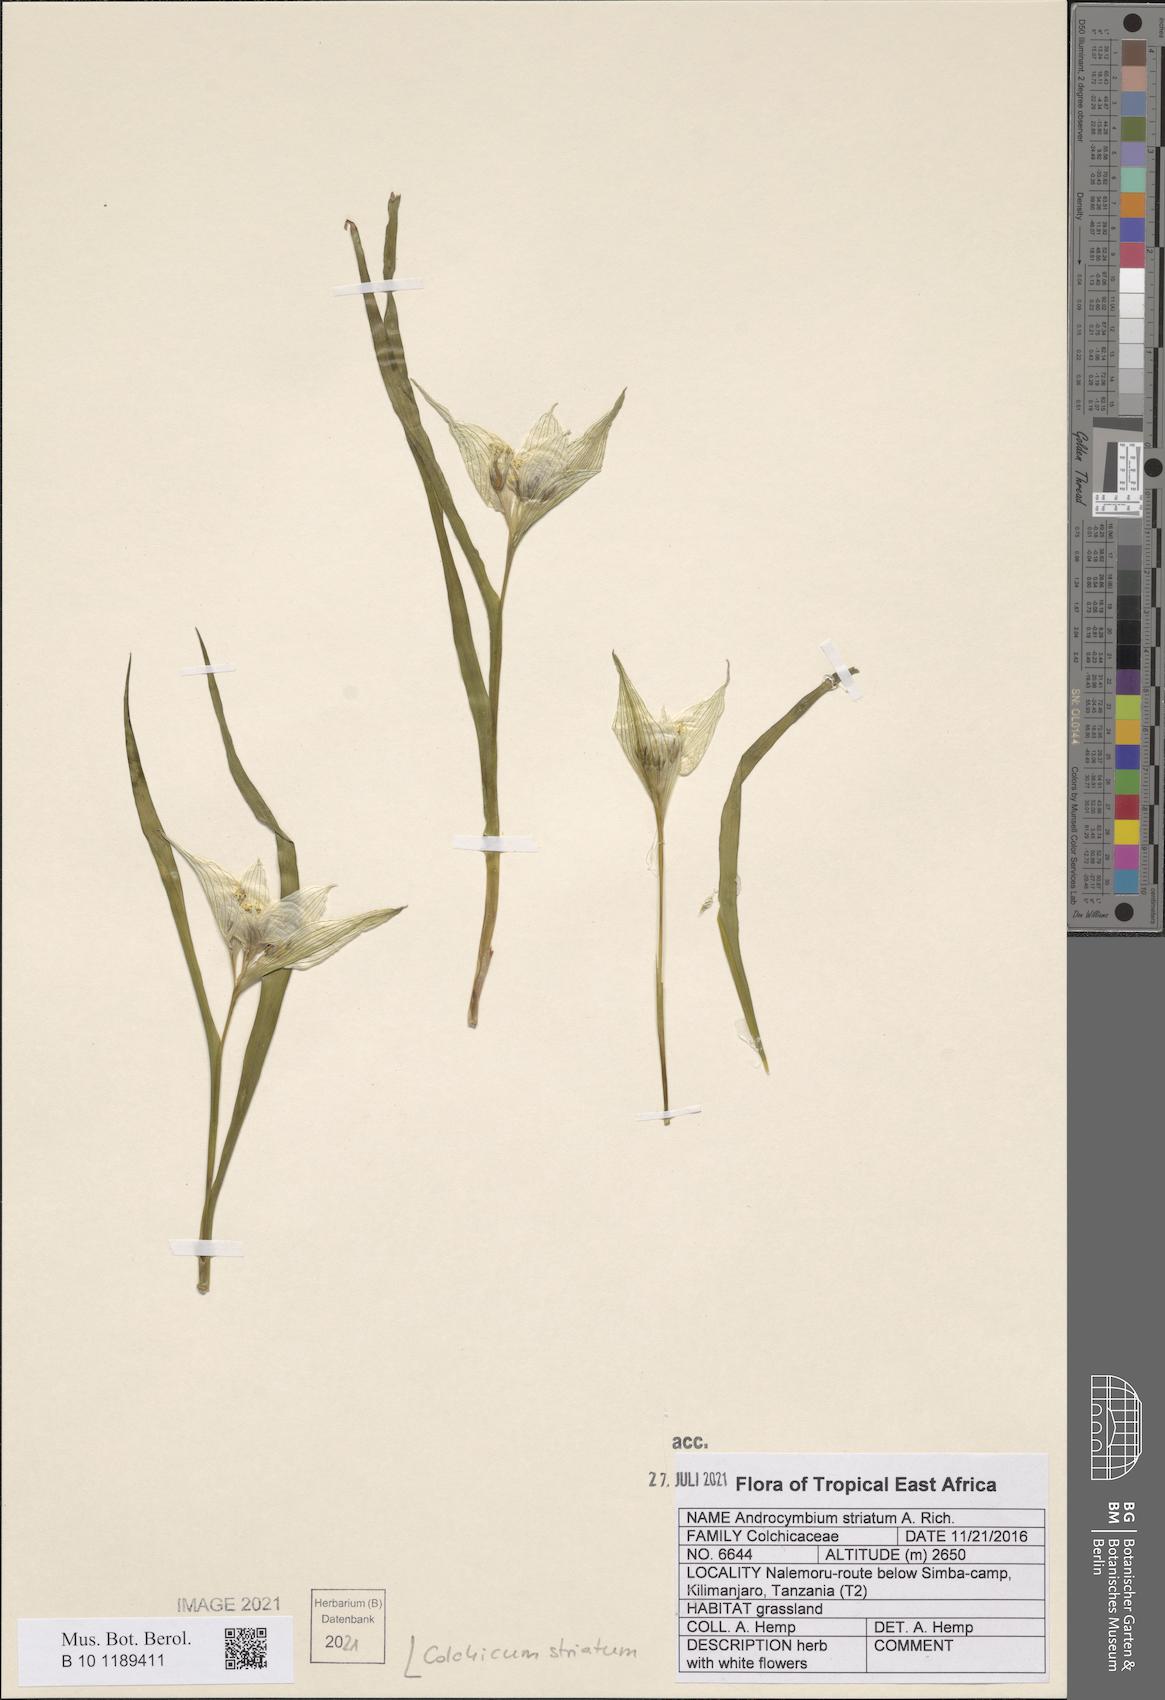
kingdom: Plantae
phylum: Tracheophyta
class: Liliopsida
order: Liliales
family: Colchicaceae
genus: Colchicum
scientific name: Colchicum striatum
